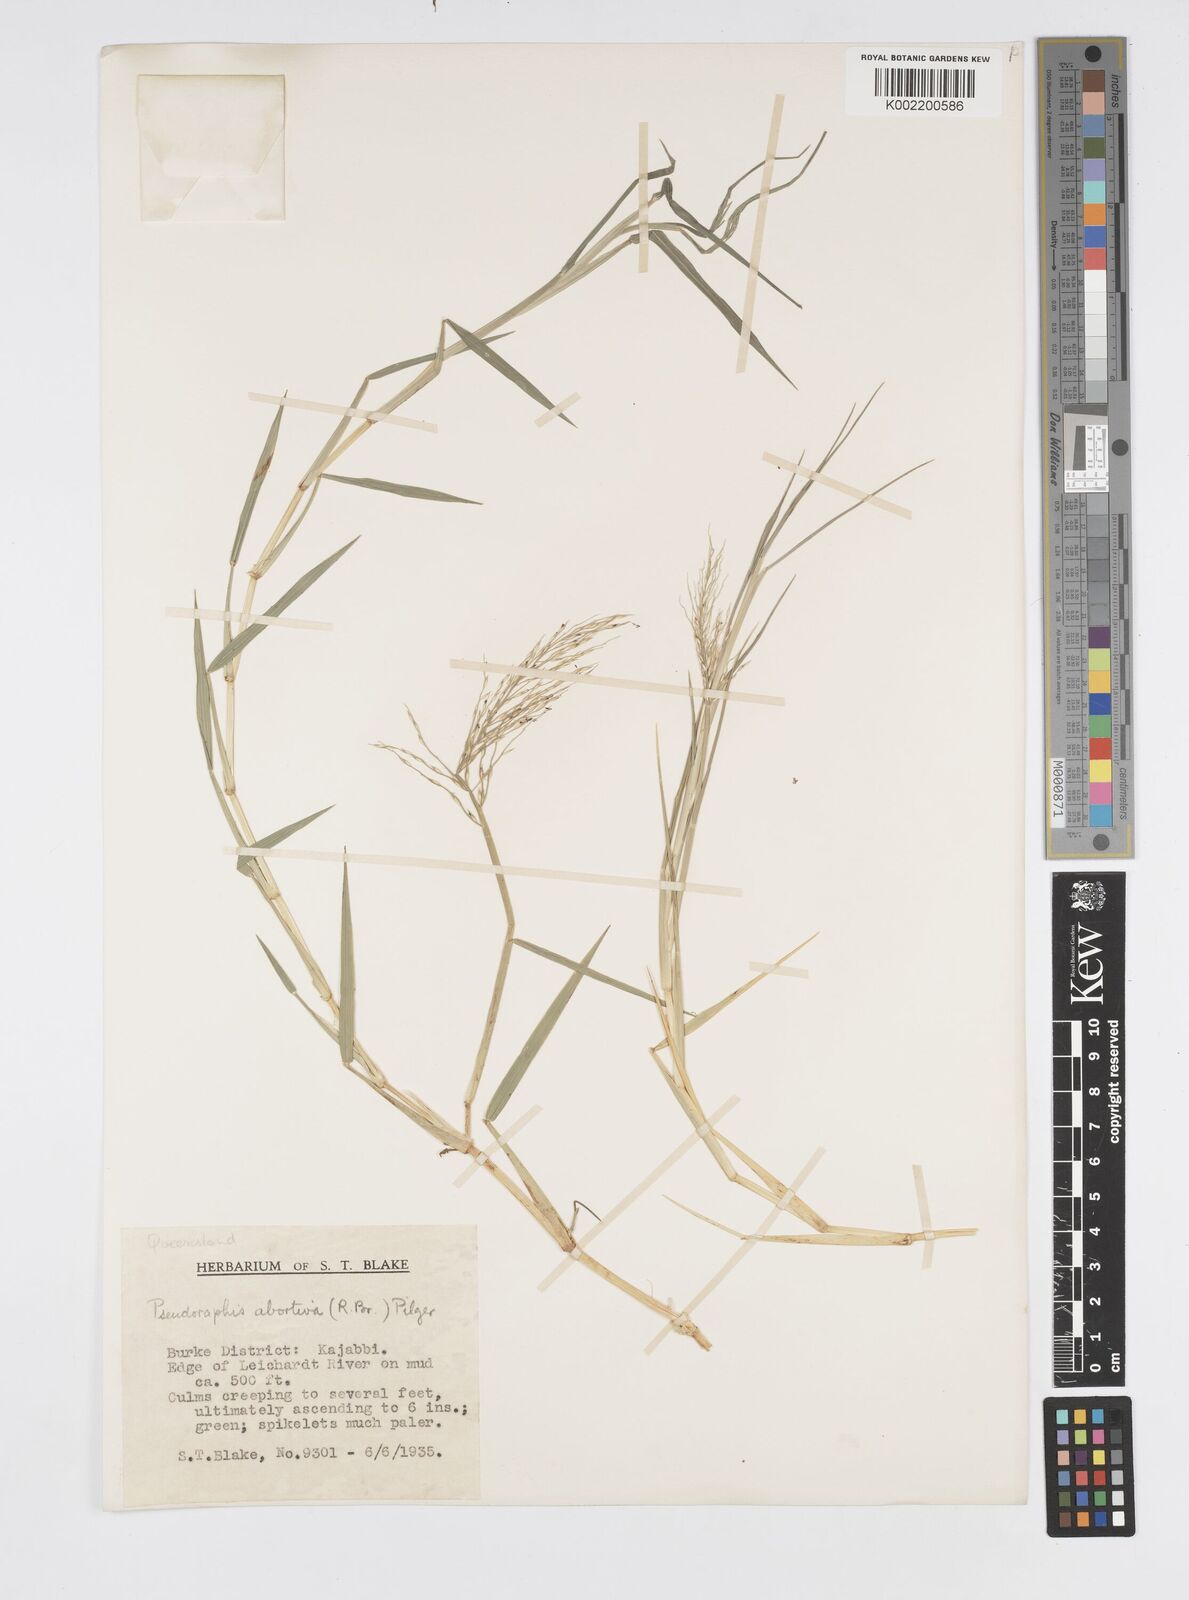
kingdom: Plantae
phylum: Tracheophyta
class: Liliopsida
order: Poales
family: Poaceae
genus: Pseudoraphis
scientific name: Pseudoraphis spinescens
